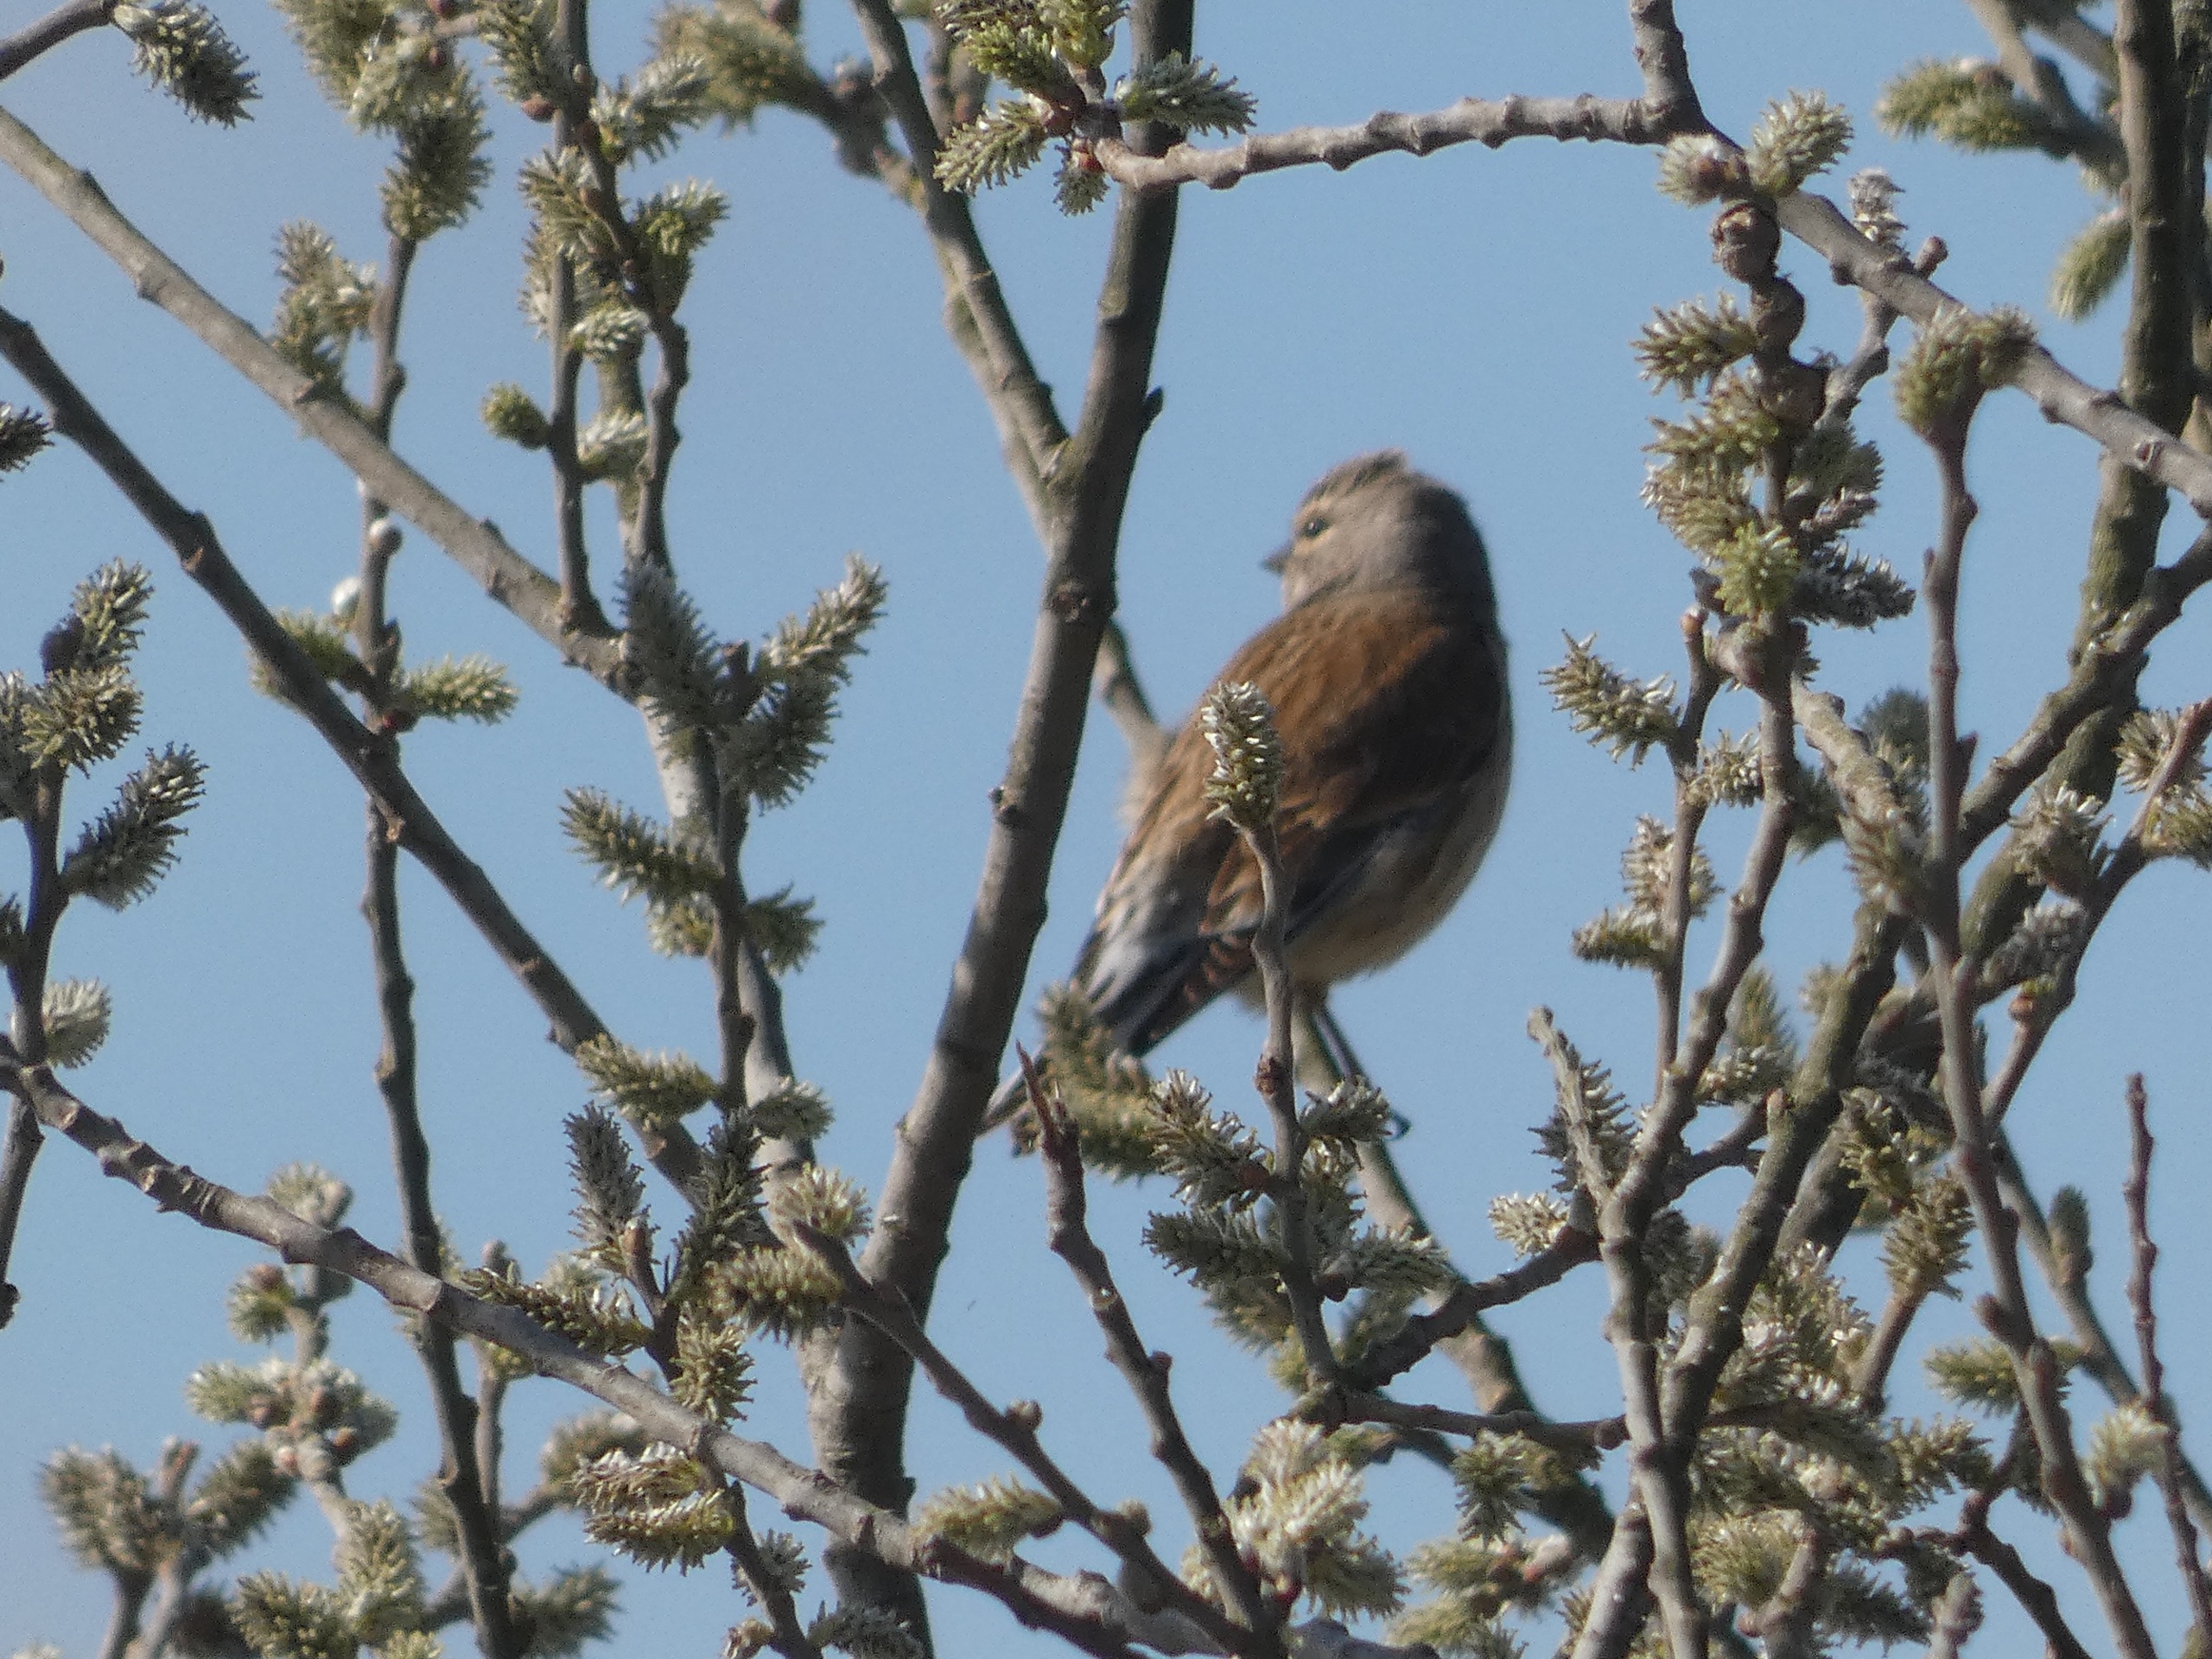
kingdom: Animalia
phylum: Chordata
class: Aves
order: Passeriformes
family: Fringillidae
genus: Linaria
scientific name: Linaria cannabina
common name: Tornirisk
